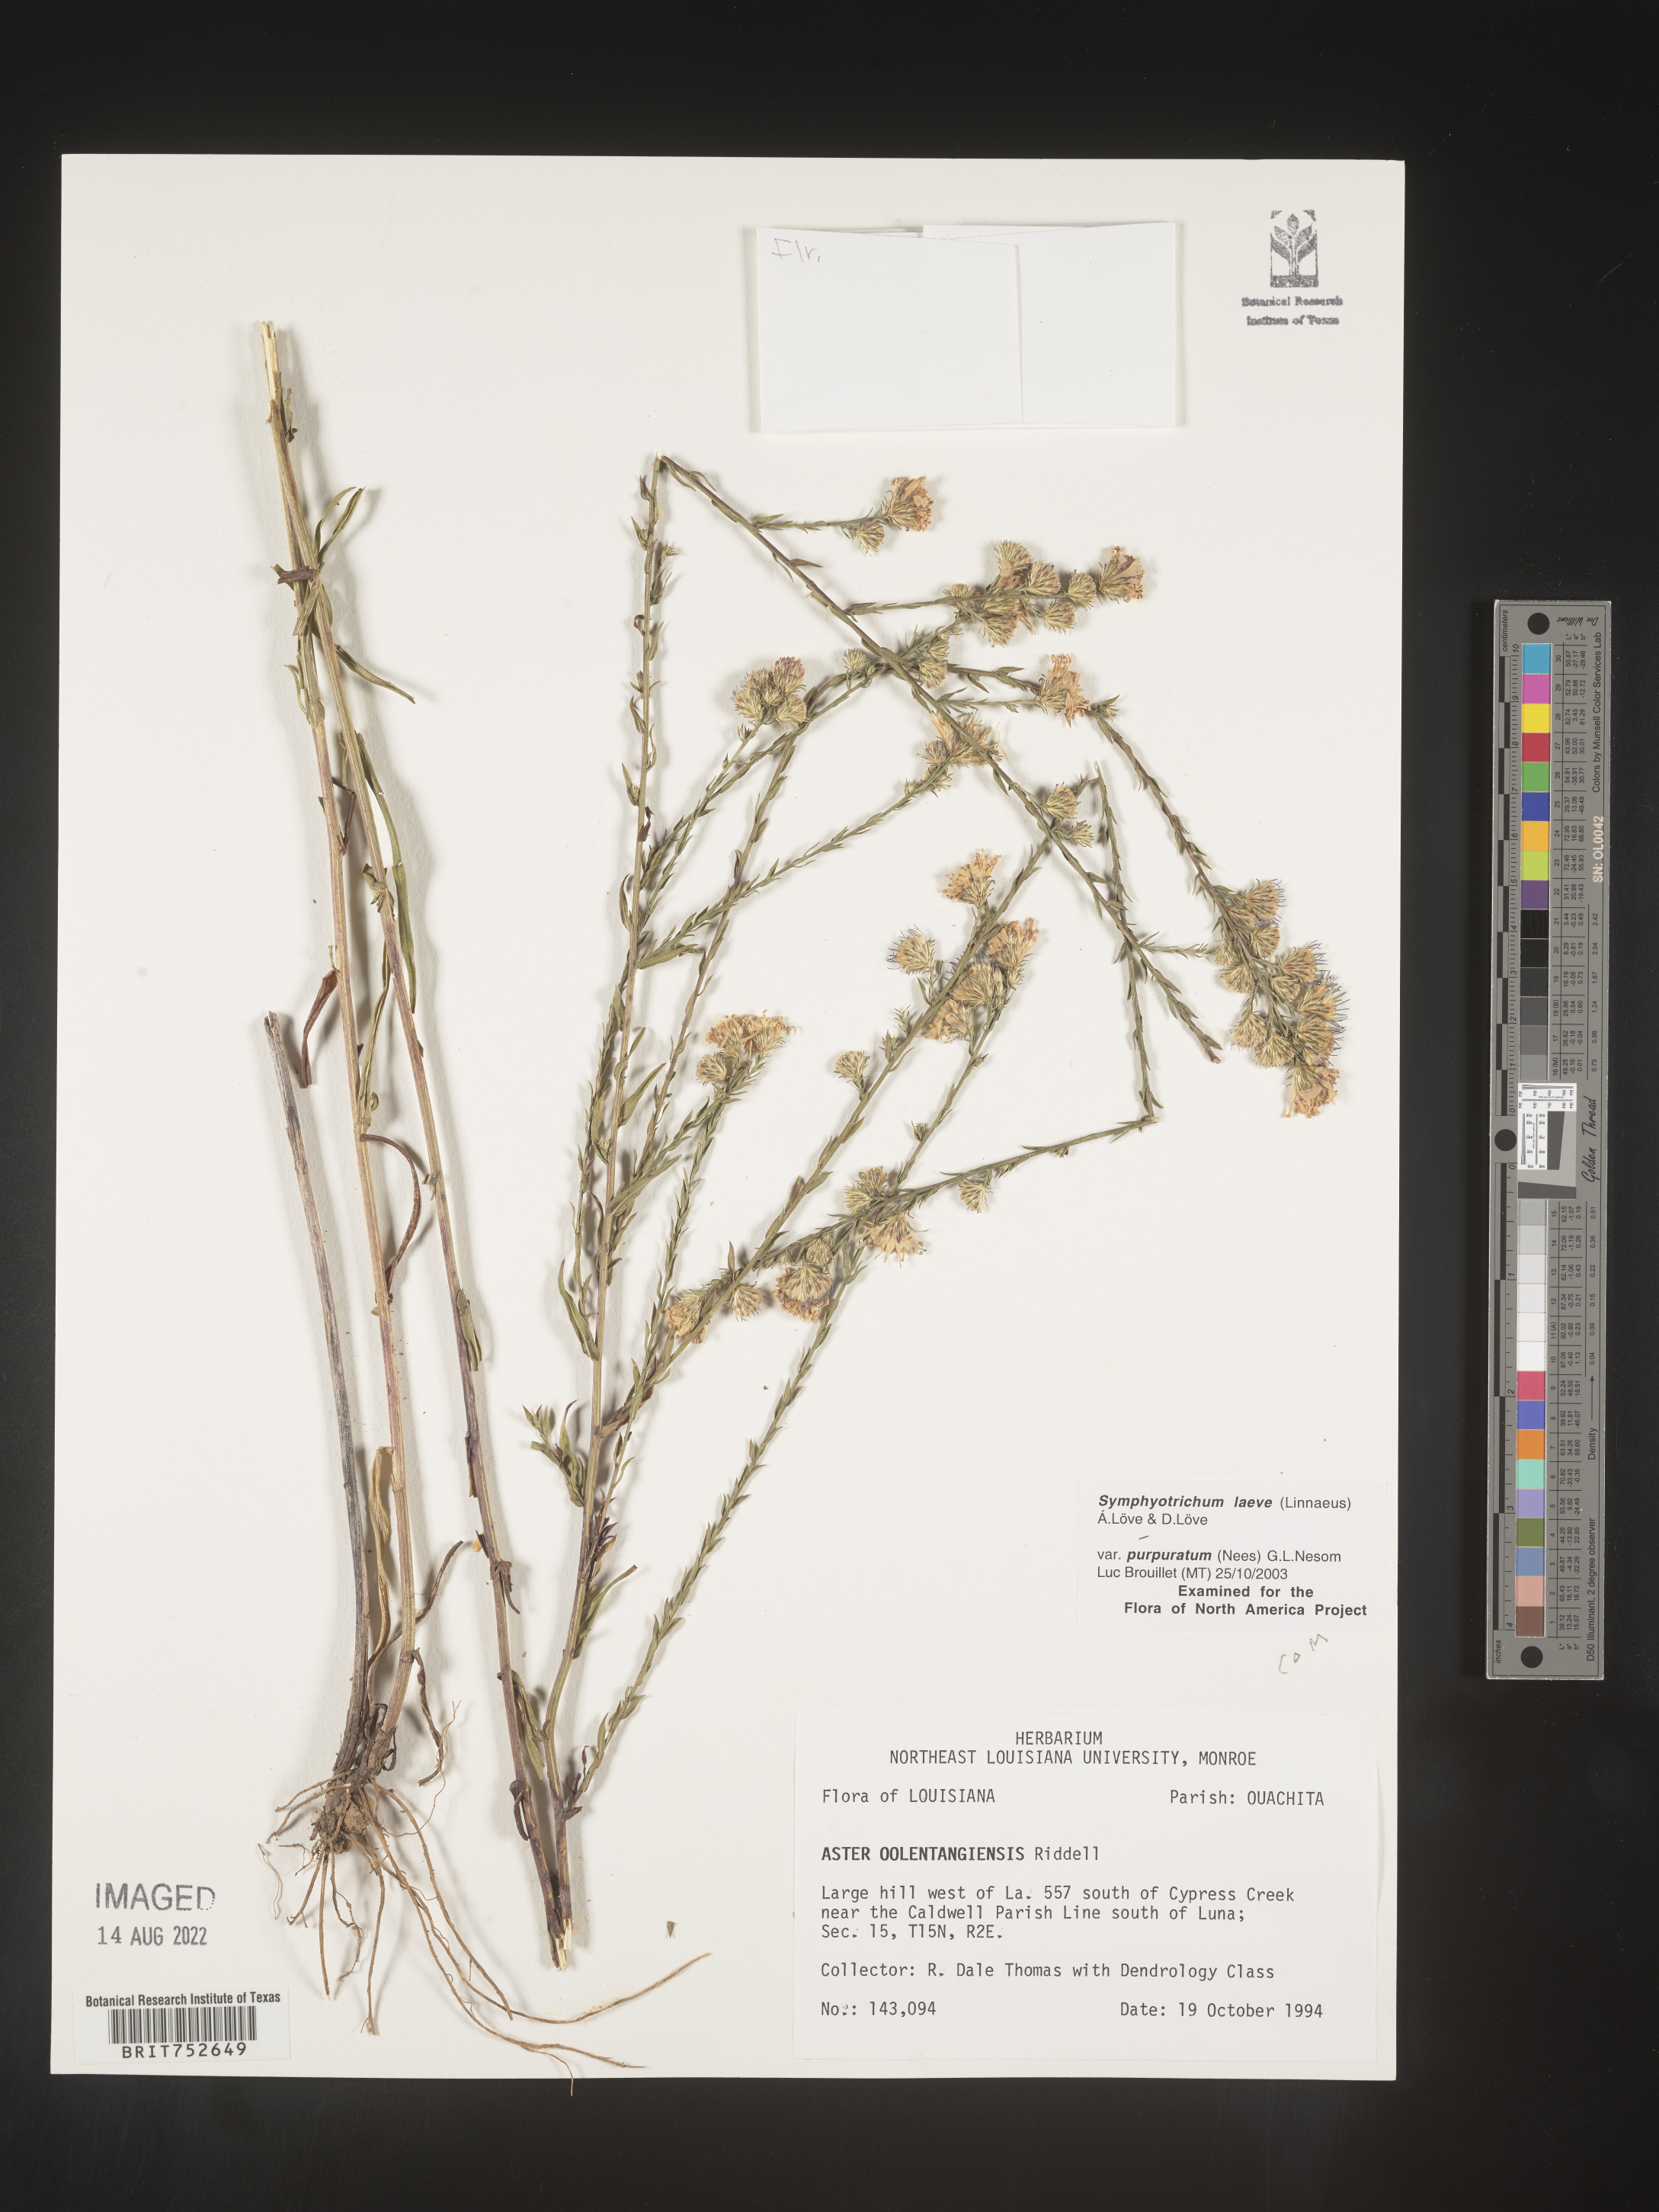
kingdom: Plantae
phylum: Tracheophyta
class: Magnoliopsida
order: Asterales
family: Asteraceae
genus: Symphyotrichum
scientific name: Symphyotrichum laeve
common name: Glaucous aster
